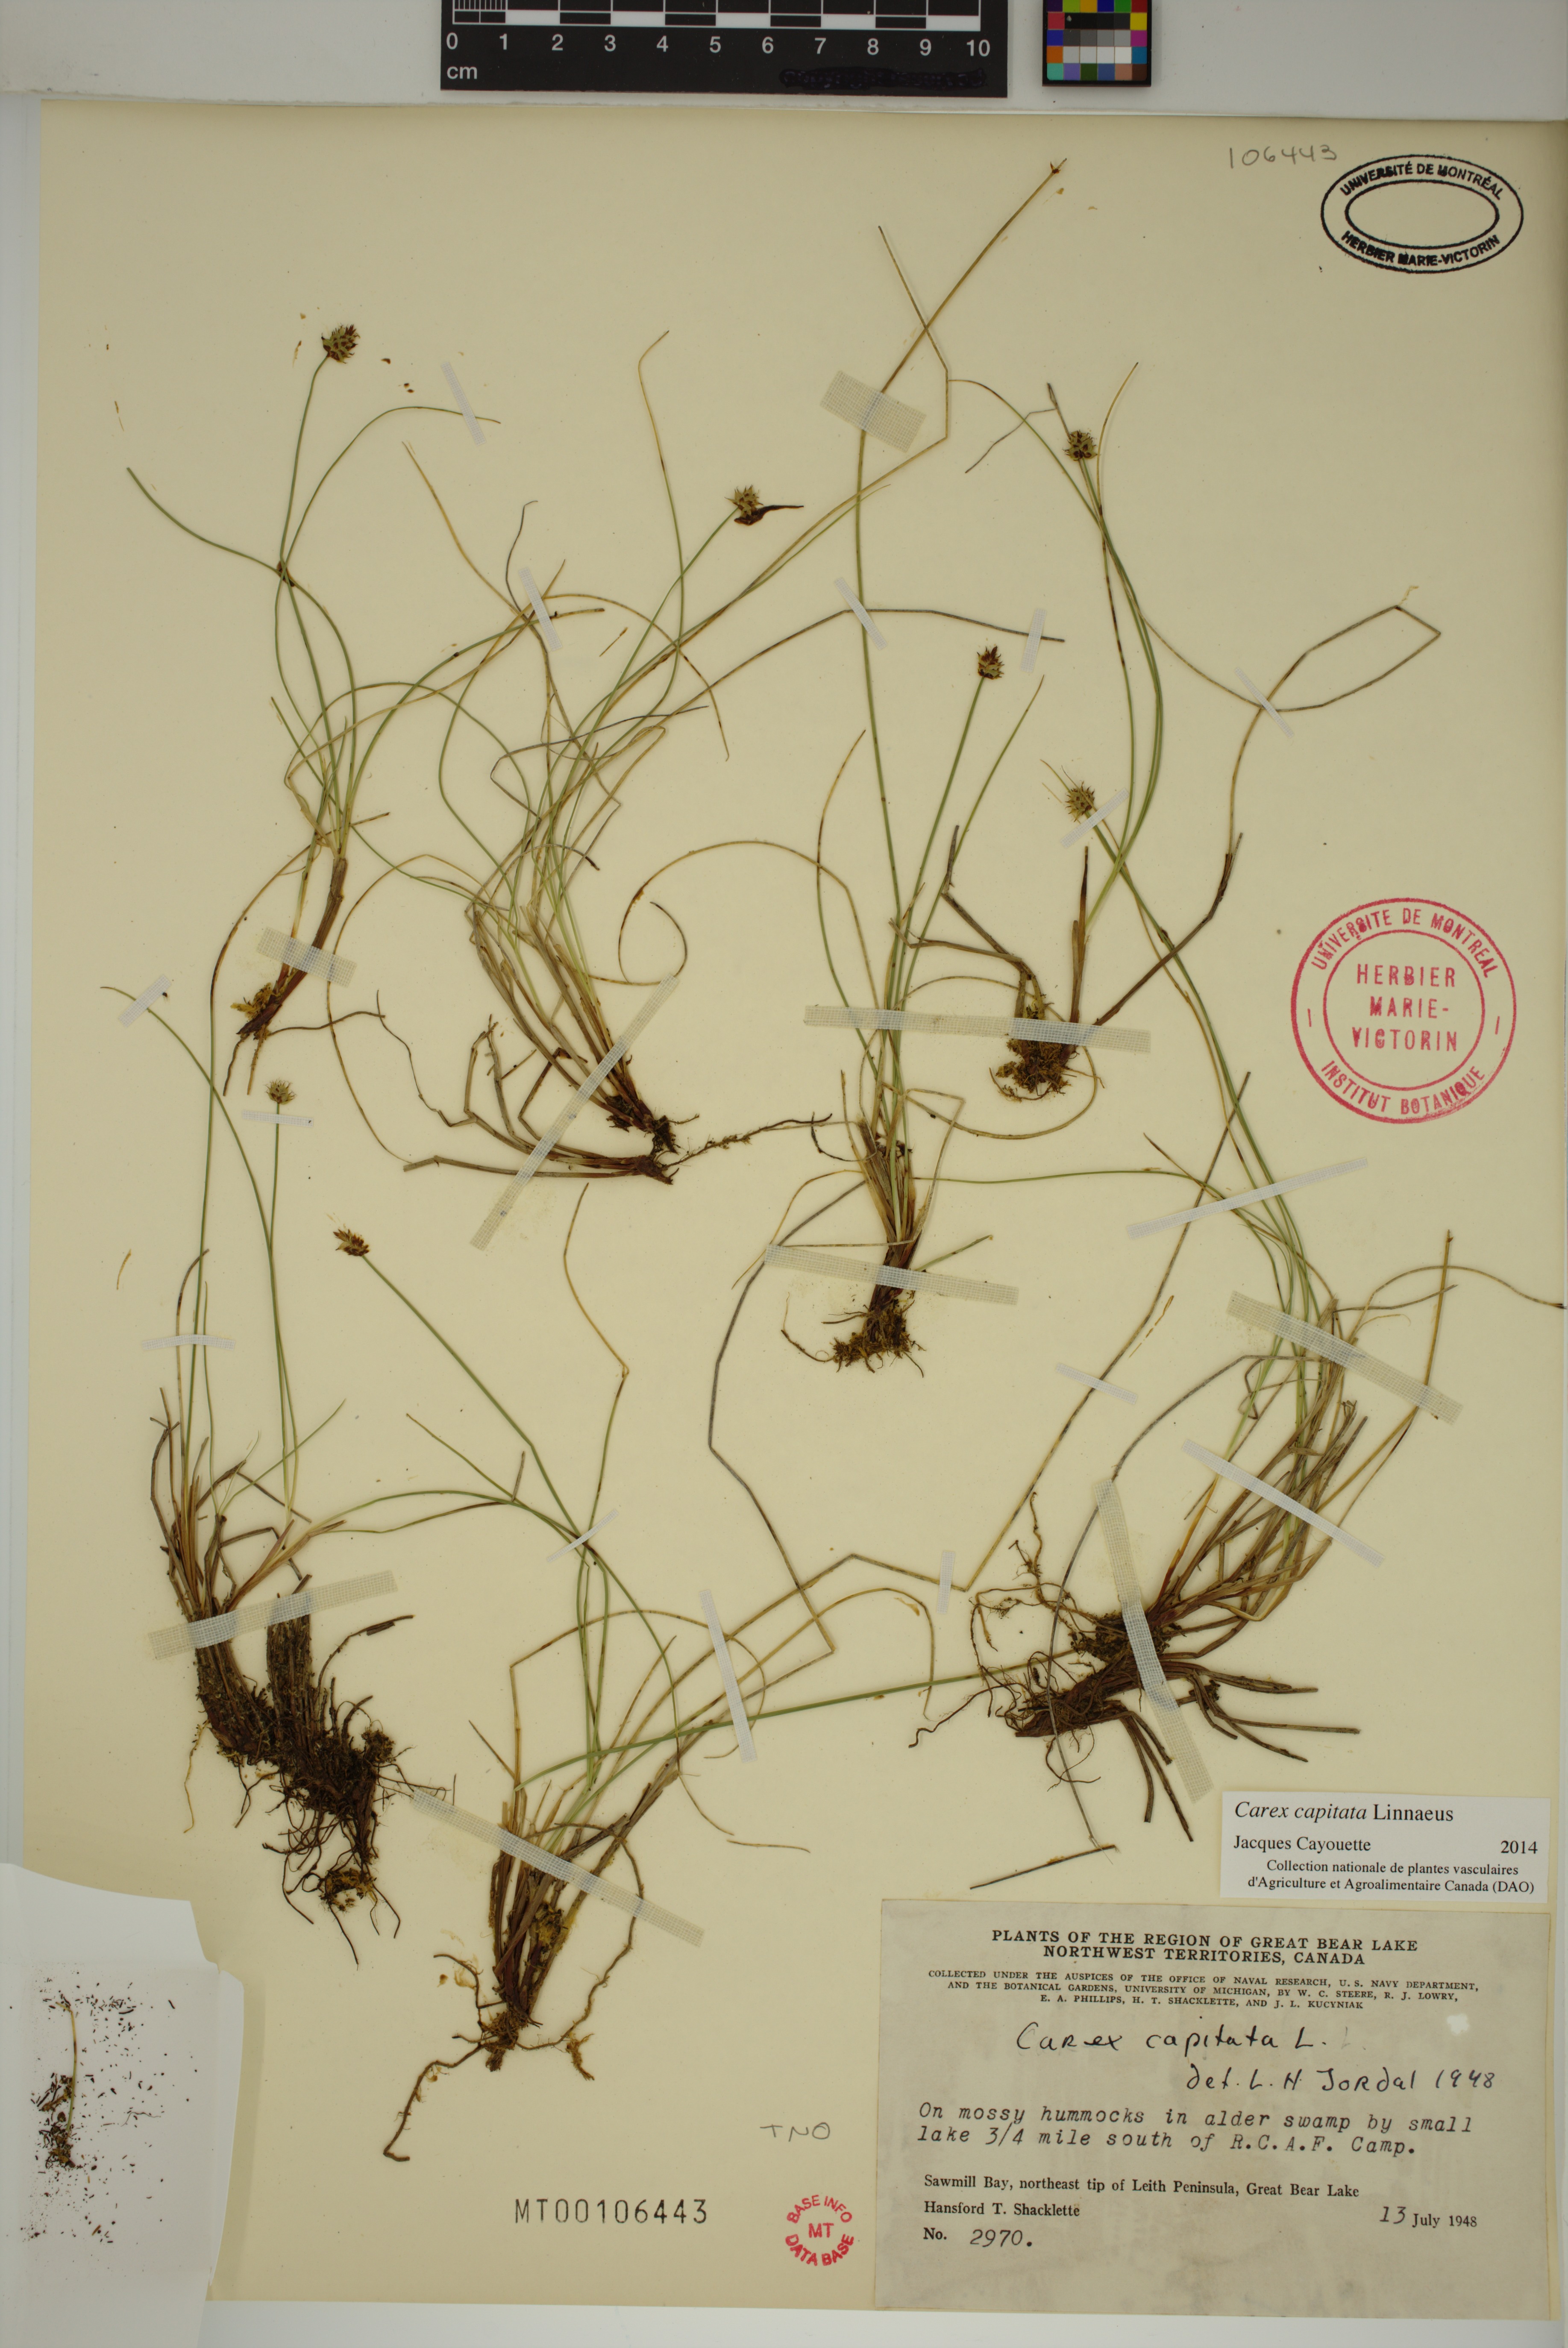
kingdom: Plantae
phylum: Tracheophyta
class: Liliopsida
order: Poales
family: Cyperaceae
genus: Carex
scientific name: Carex capitata
